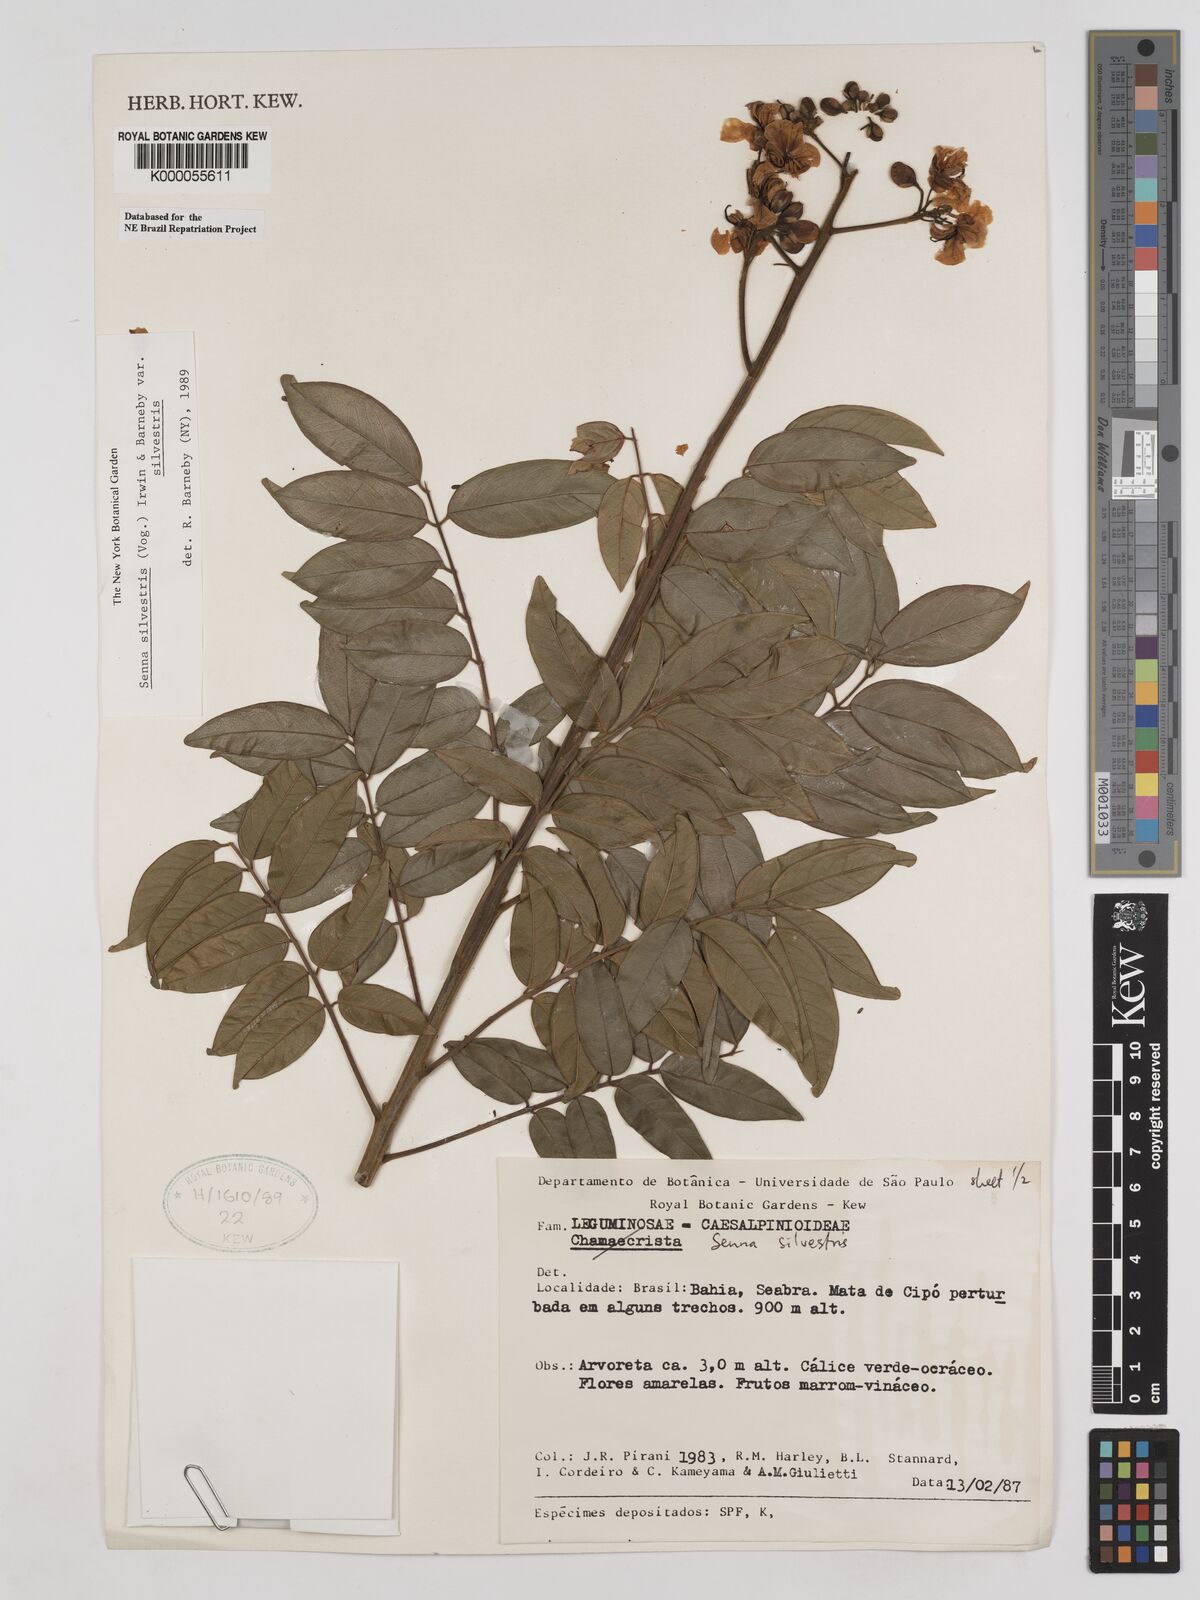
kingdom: Plantae
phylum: Tracheophyta
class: Magnoliopsida
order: Fabales
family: Fabaceae
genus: Senna
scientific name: Senna silvestris
